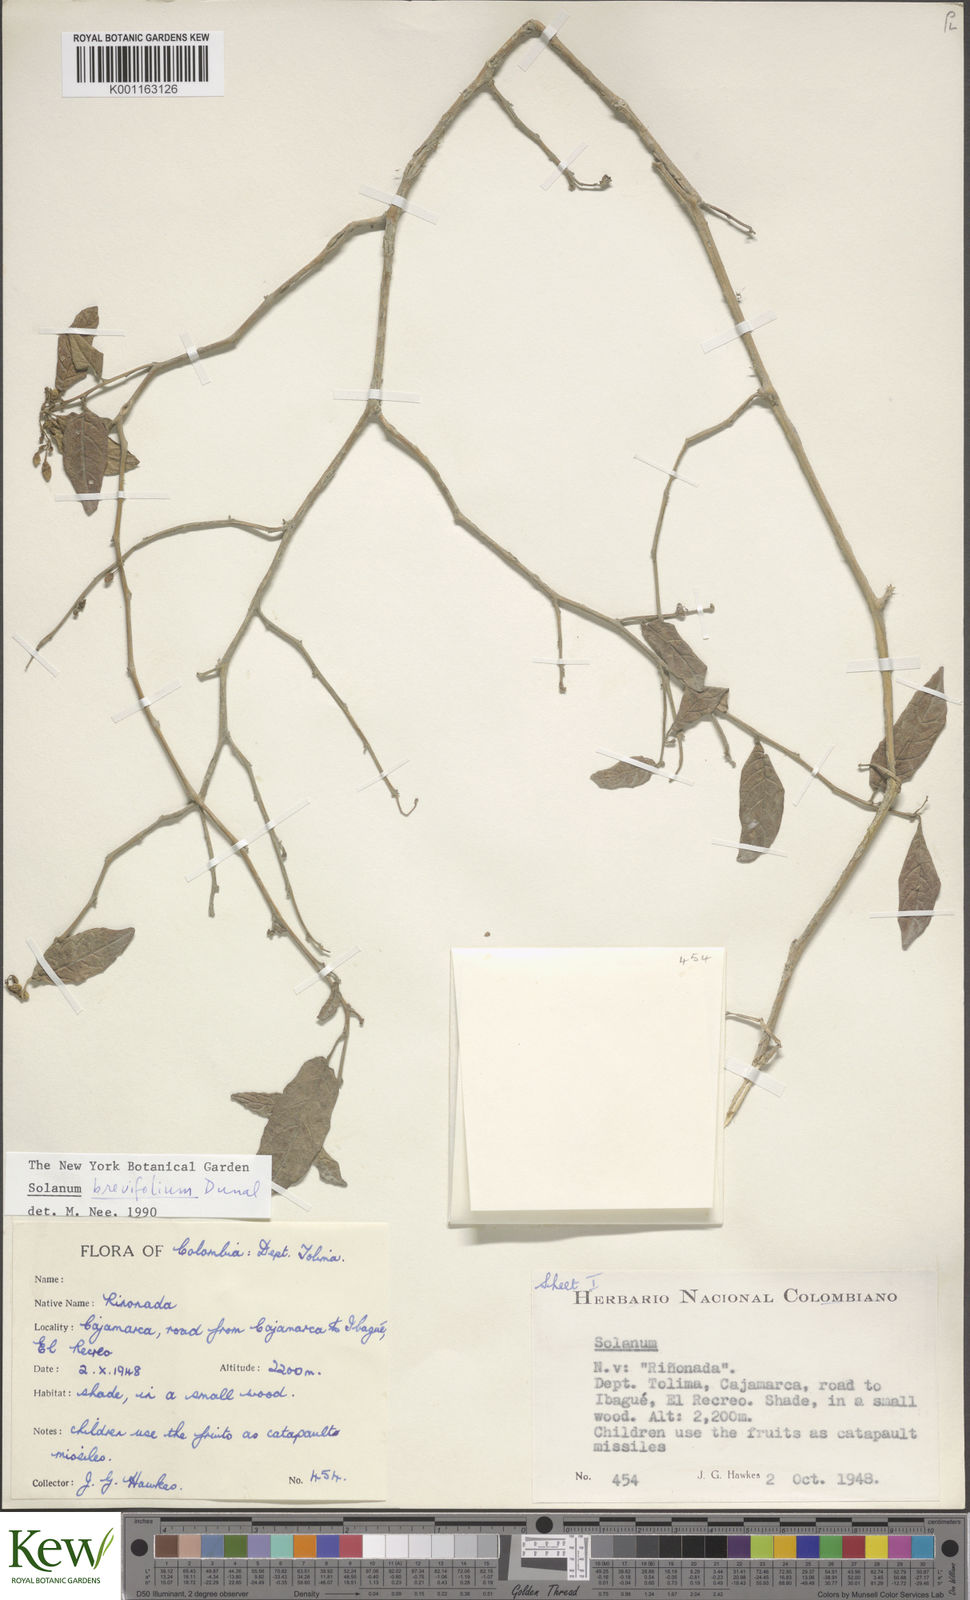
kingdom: Plantae
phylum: Tracheophyta
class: Magnoliopsida
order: Solanales
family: Solanaceae
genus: Solanum
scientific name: Solanum brevifolium
